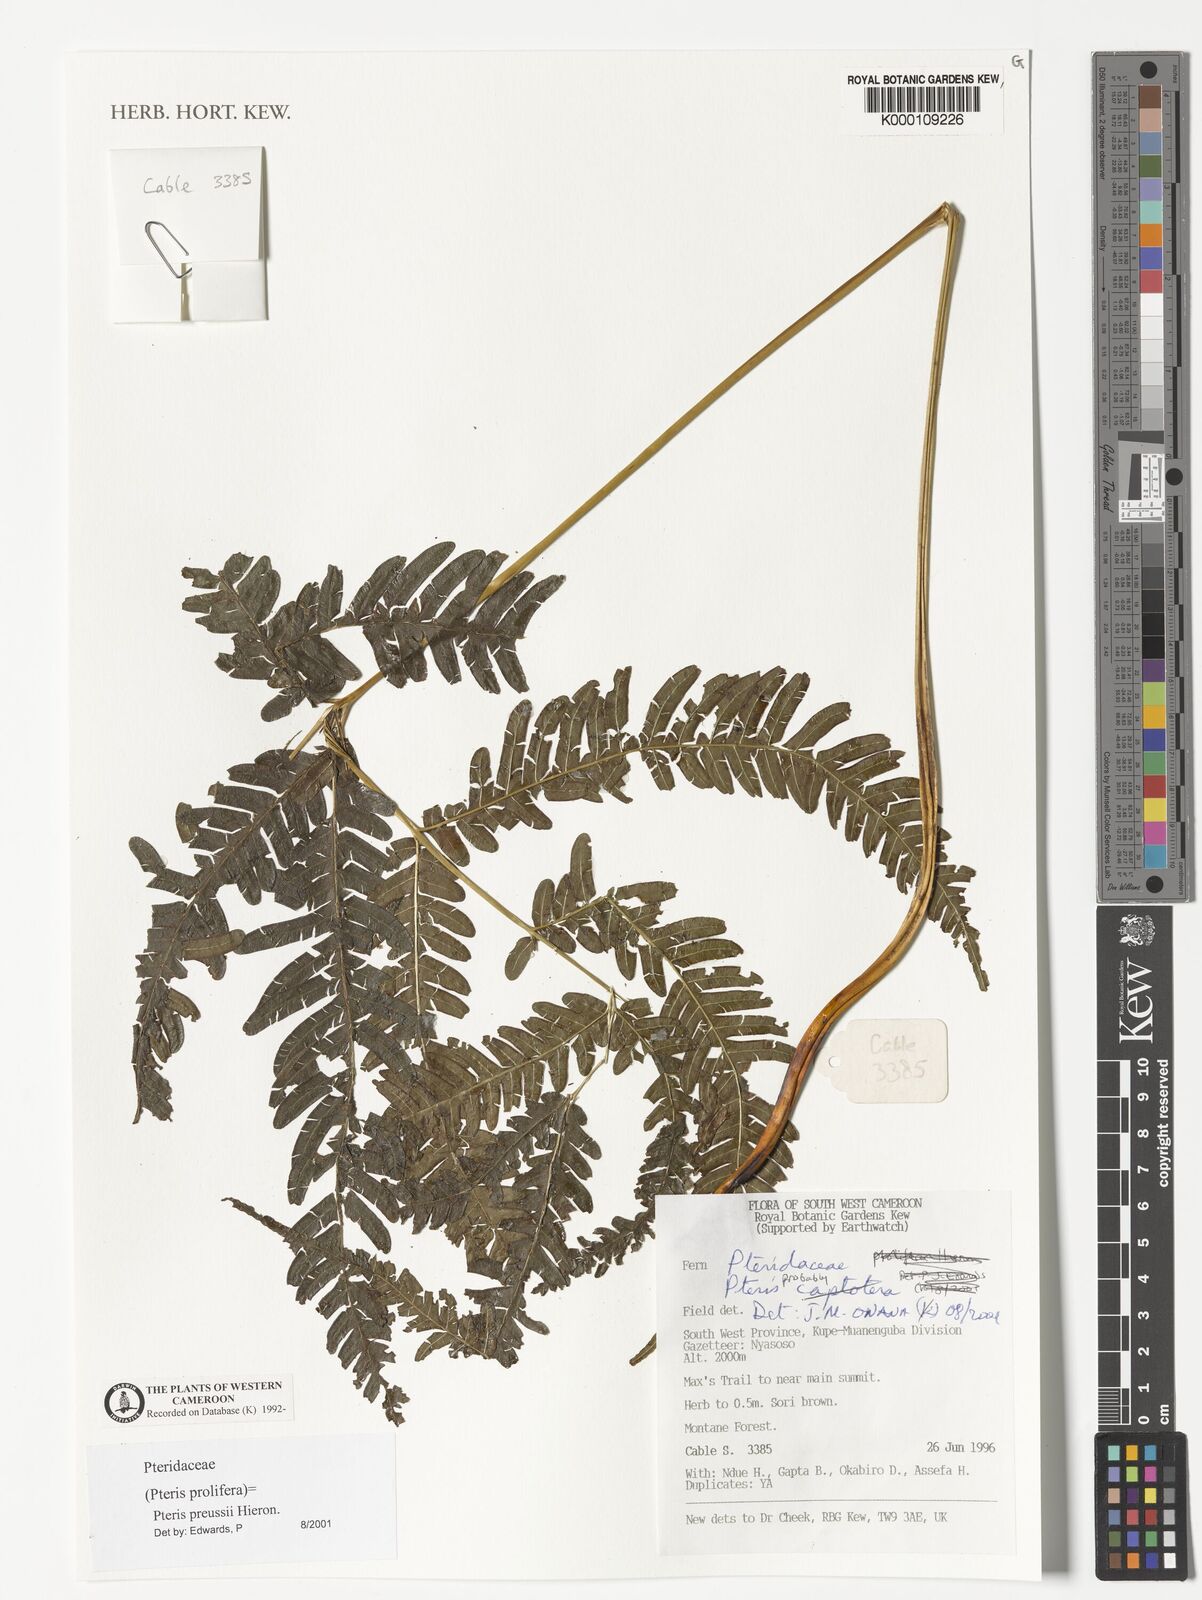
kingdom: Plantae
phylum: Tracheophyta
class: Polypodiopsida
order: Polypodiales
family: Pteridaceae
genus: Pteris
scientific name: Pteris catoptera
